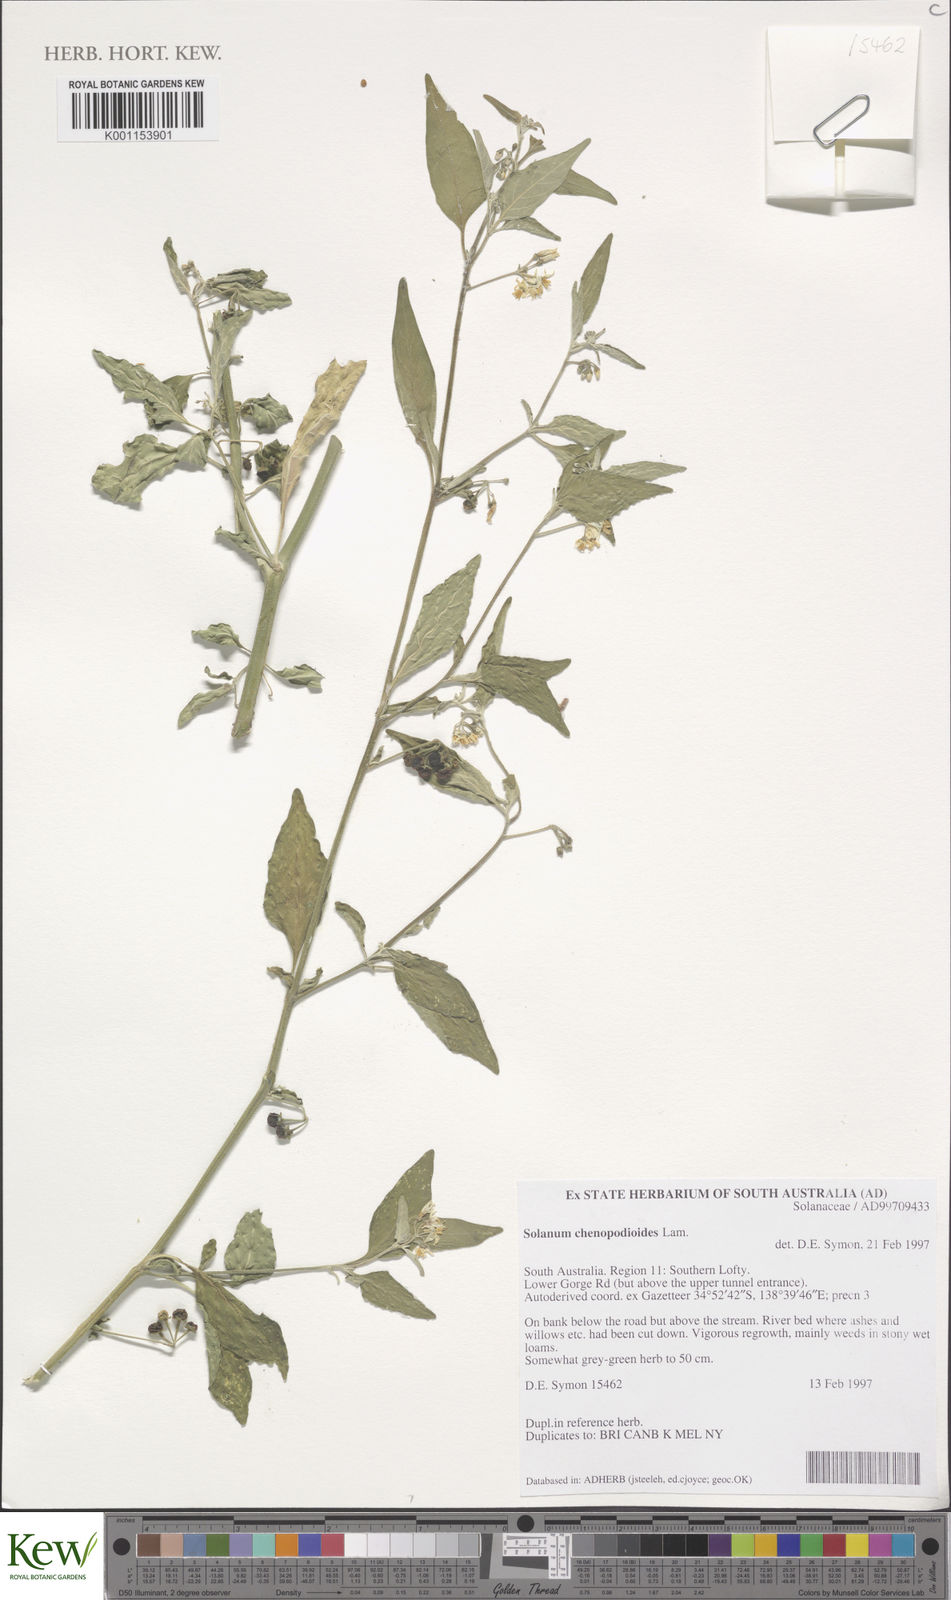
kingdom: Plantae
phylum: Tracheophyta
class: Magnoliopsida
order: Solanales
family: Solanaceae
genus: Solanum
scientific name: Solanum chenopodioides
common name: Tall nightshade
